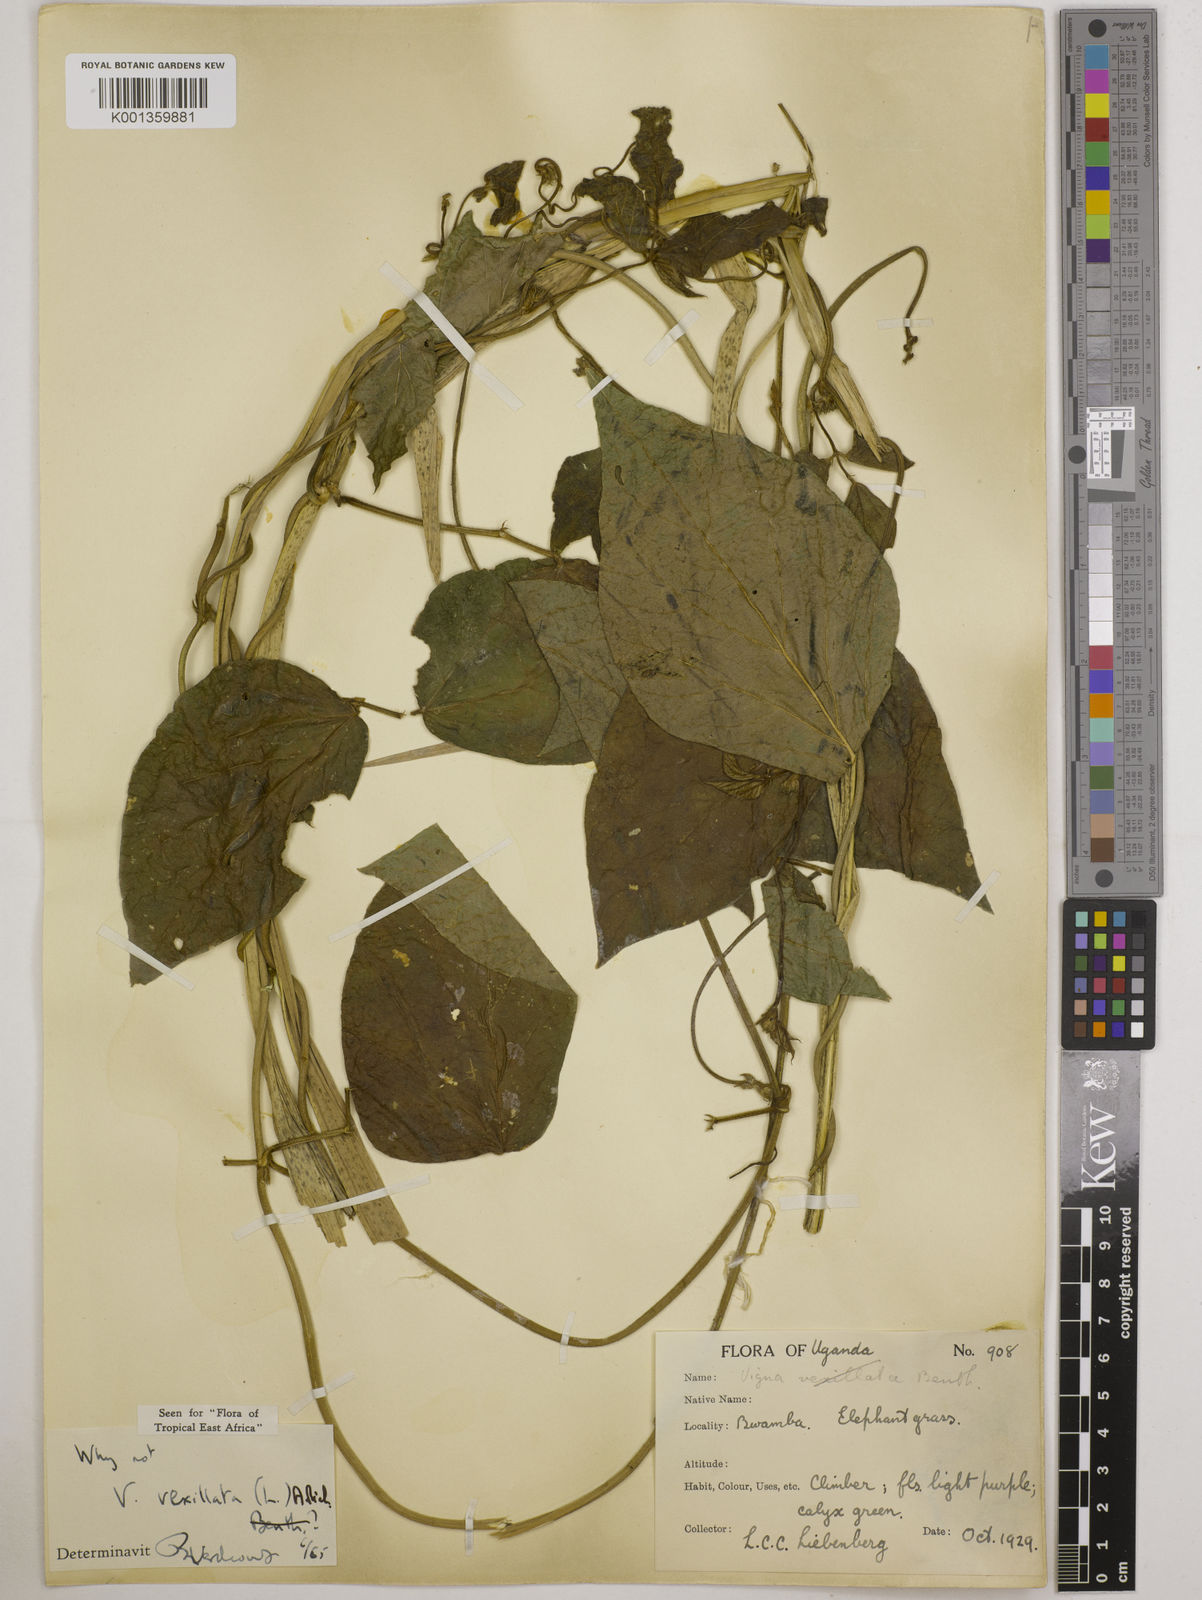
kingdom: Plantae
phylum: Tracheophyta
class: Magnoliopsida
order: Fabales
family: Fabaceae
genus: Vigna
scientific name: Vigna vexillata
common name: Zombi pea
